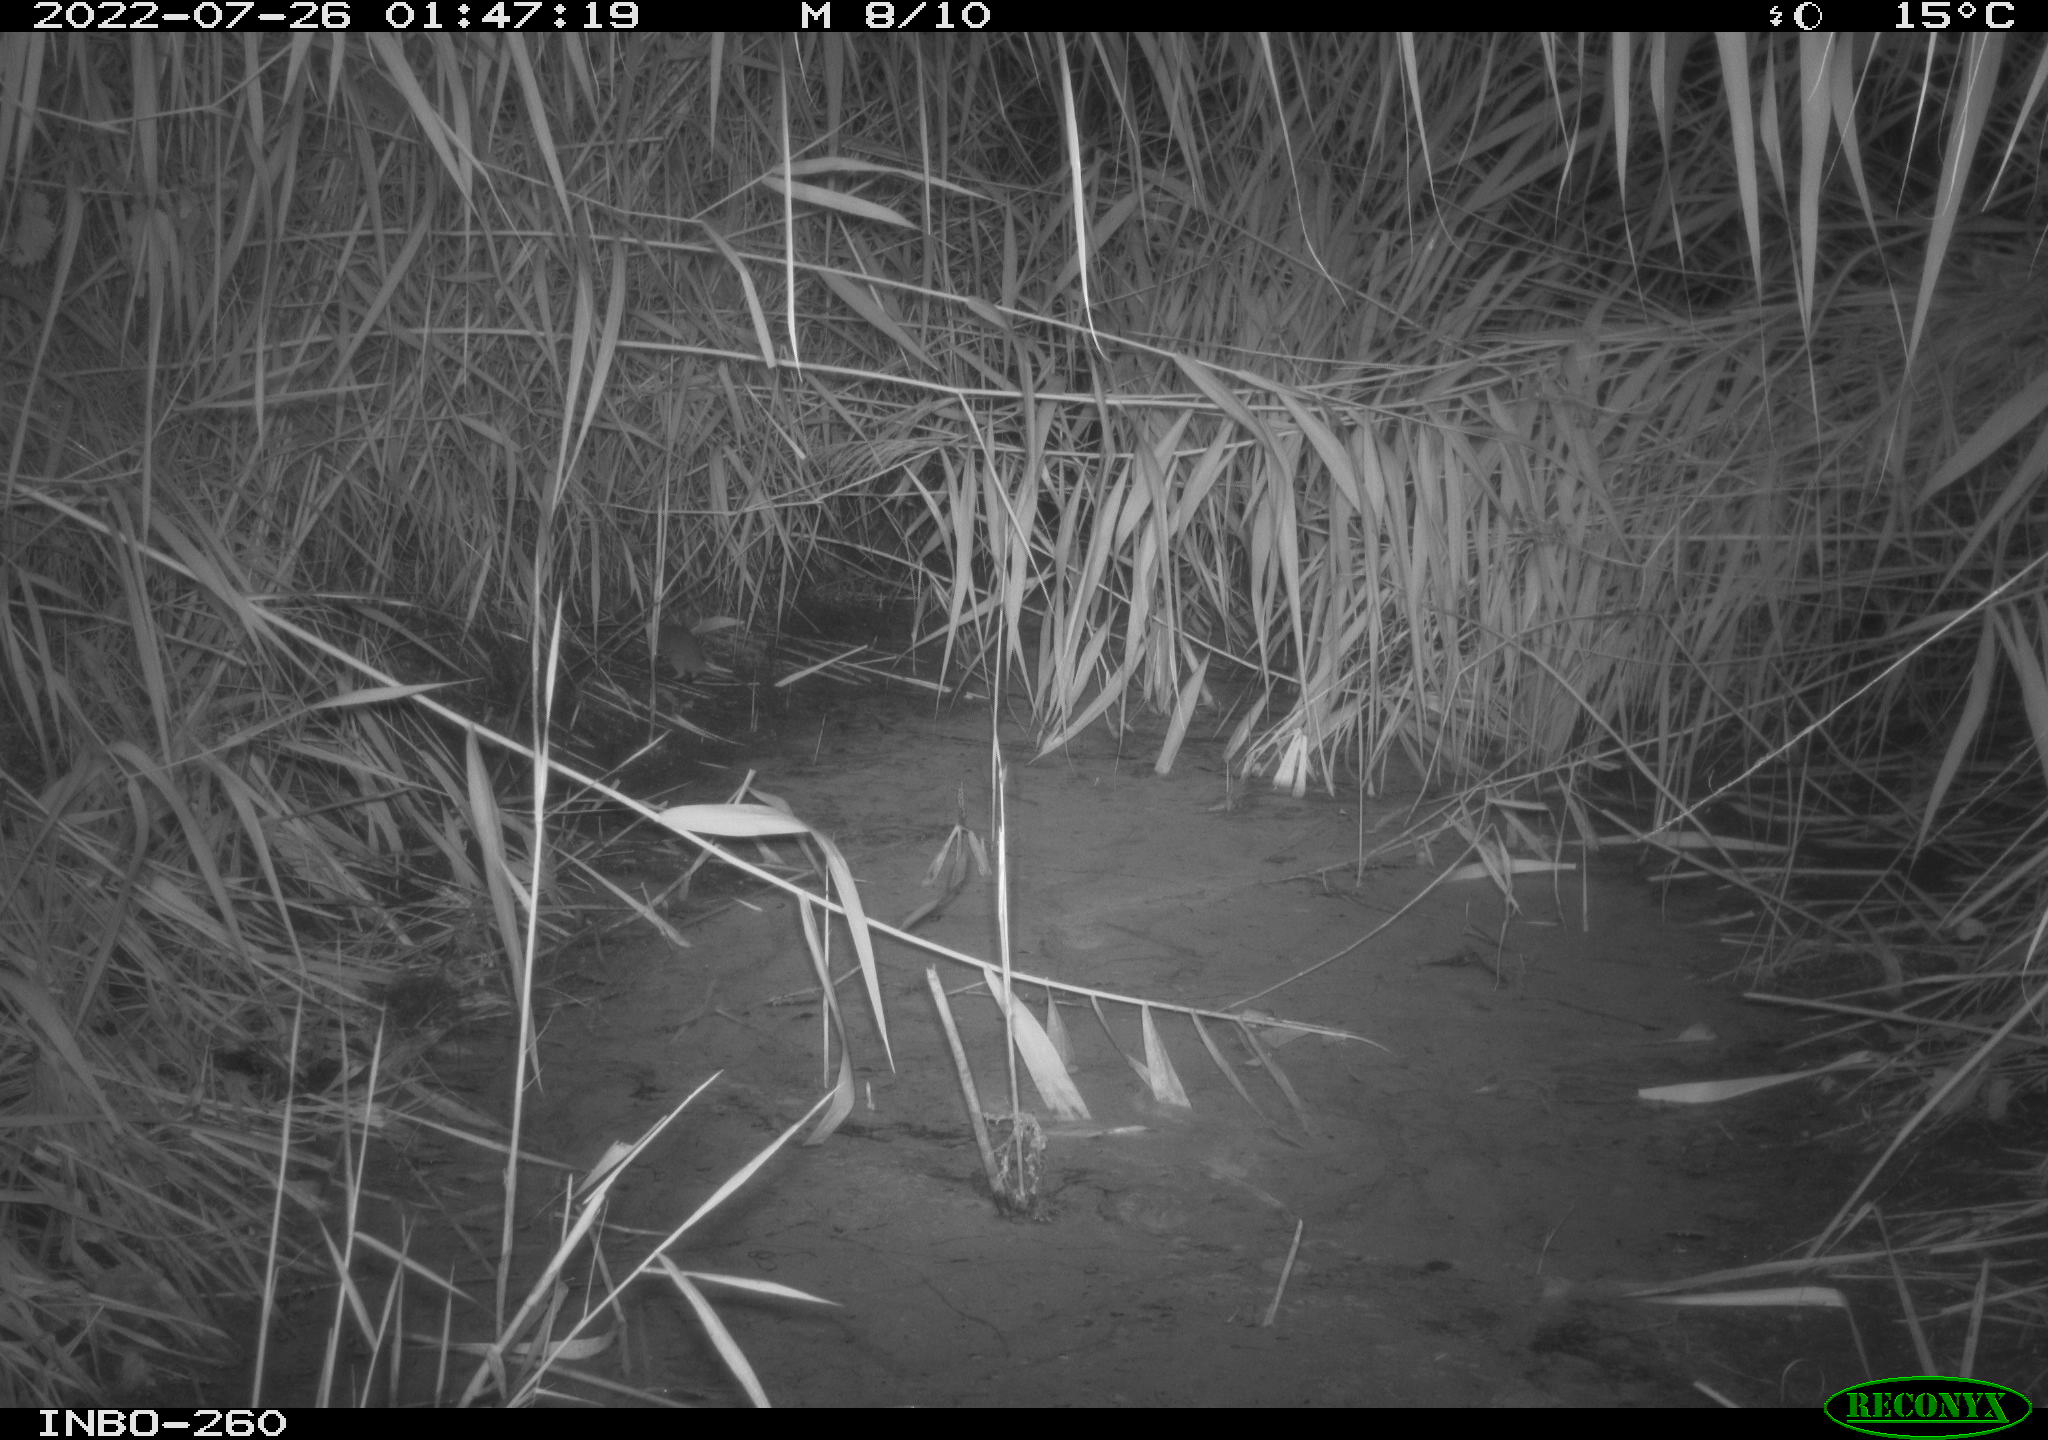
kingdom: Animalia
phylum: Chordata
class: Mammalia
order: Rodentia
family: Muridae
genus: Rattus
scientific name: Rattus norvegicus
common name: Brown rat
